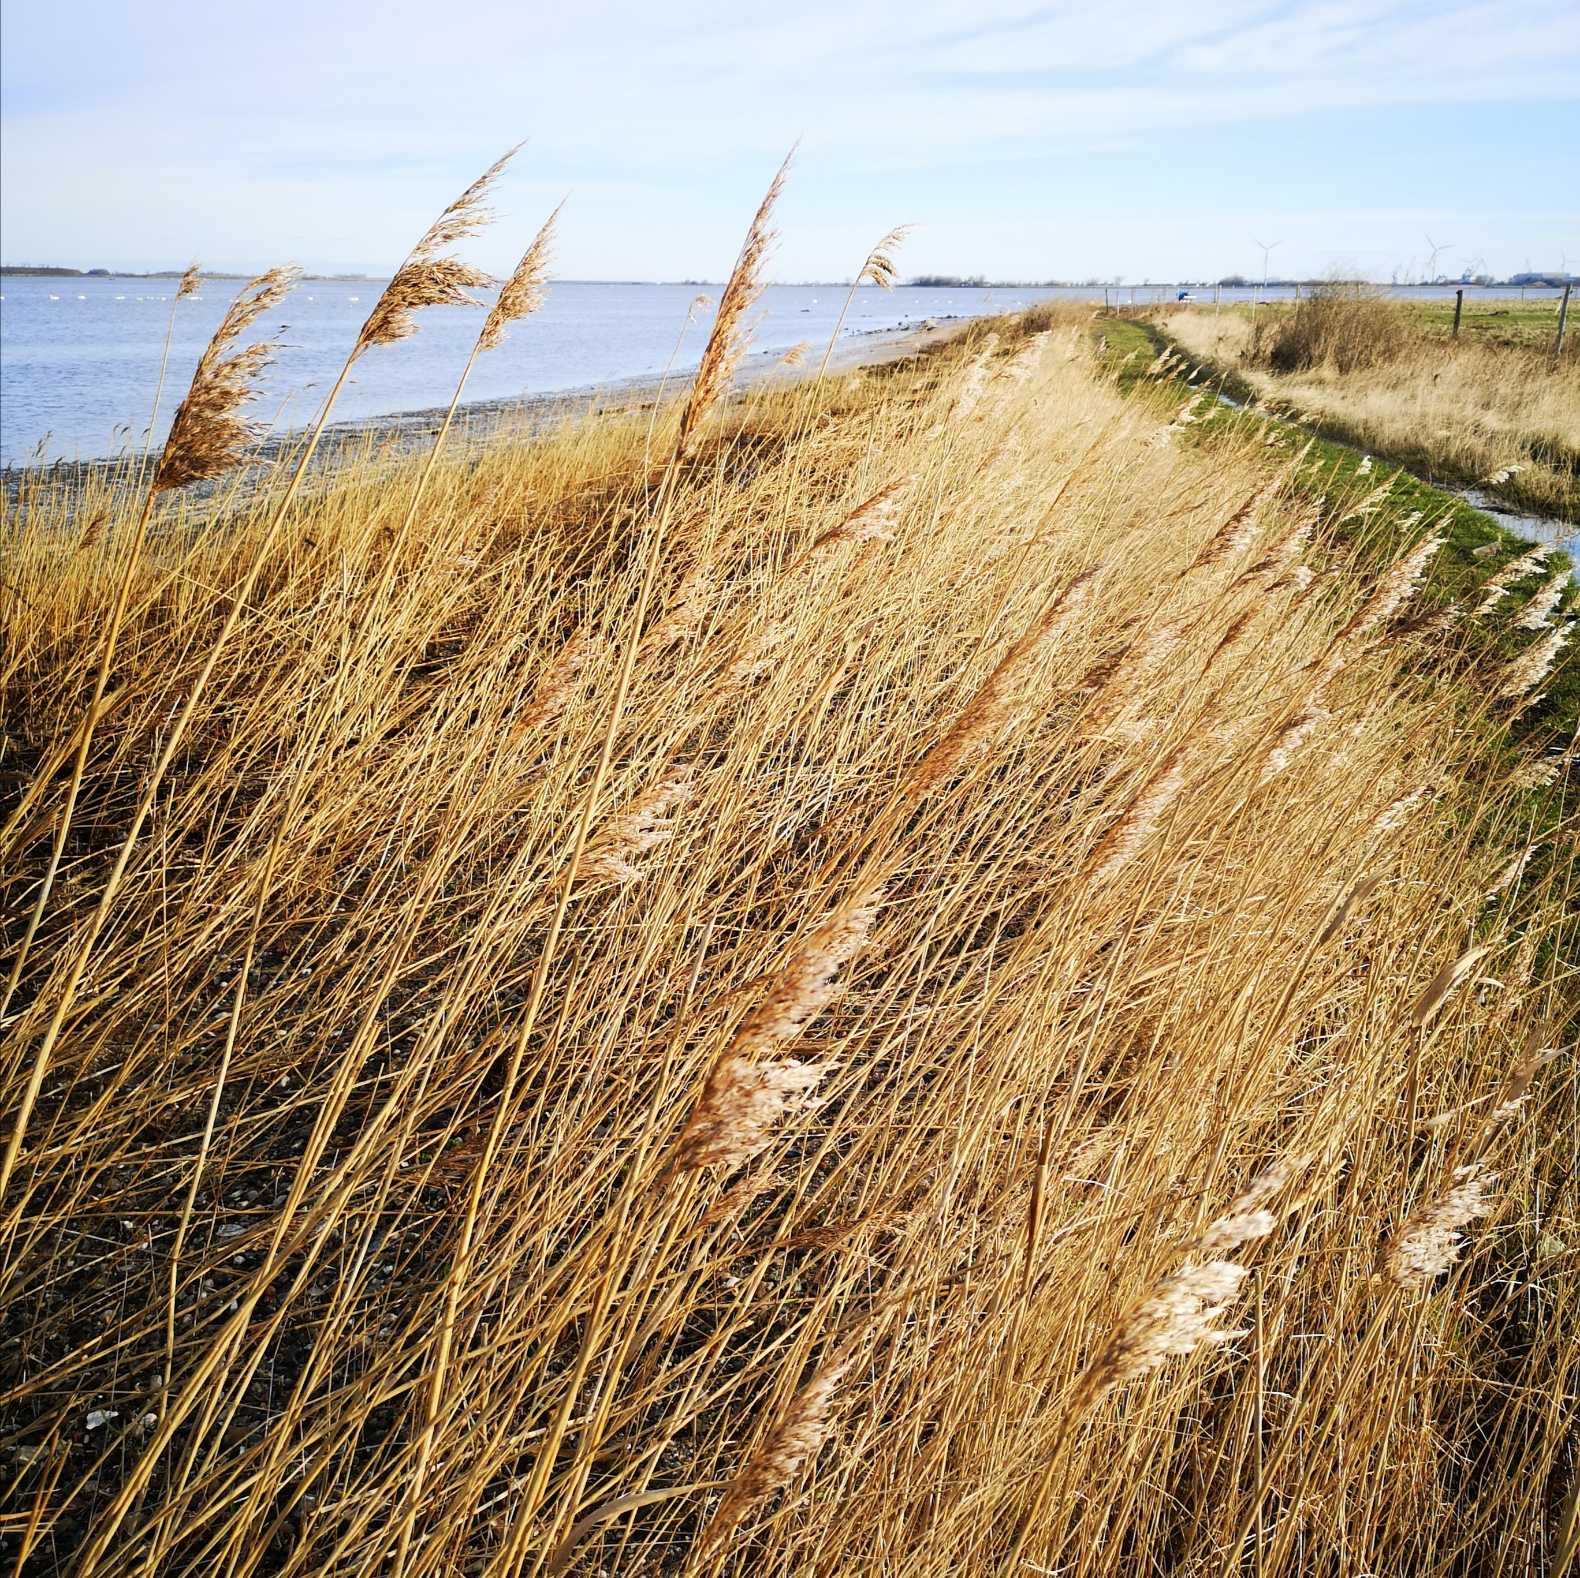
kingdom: Plantae
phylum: Tracheophyta
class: Liliopsida
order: Poales
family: Poaceae
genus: Phragmites
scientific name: Phragmites australis
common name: Tagrør
